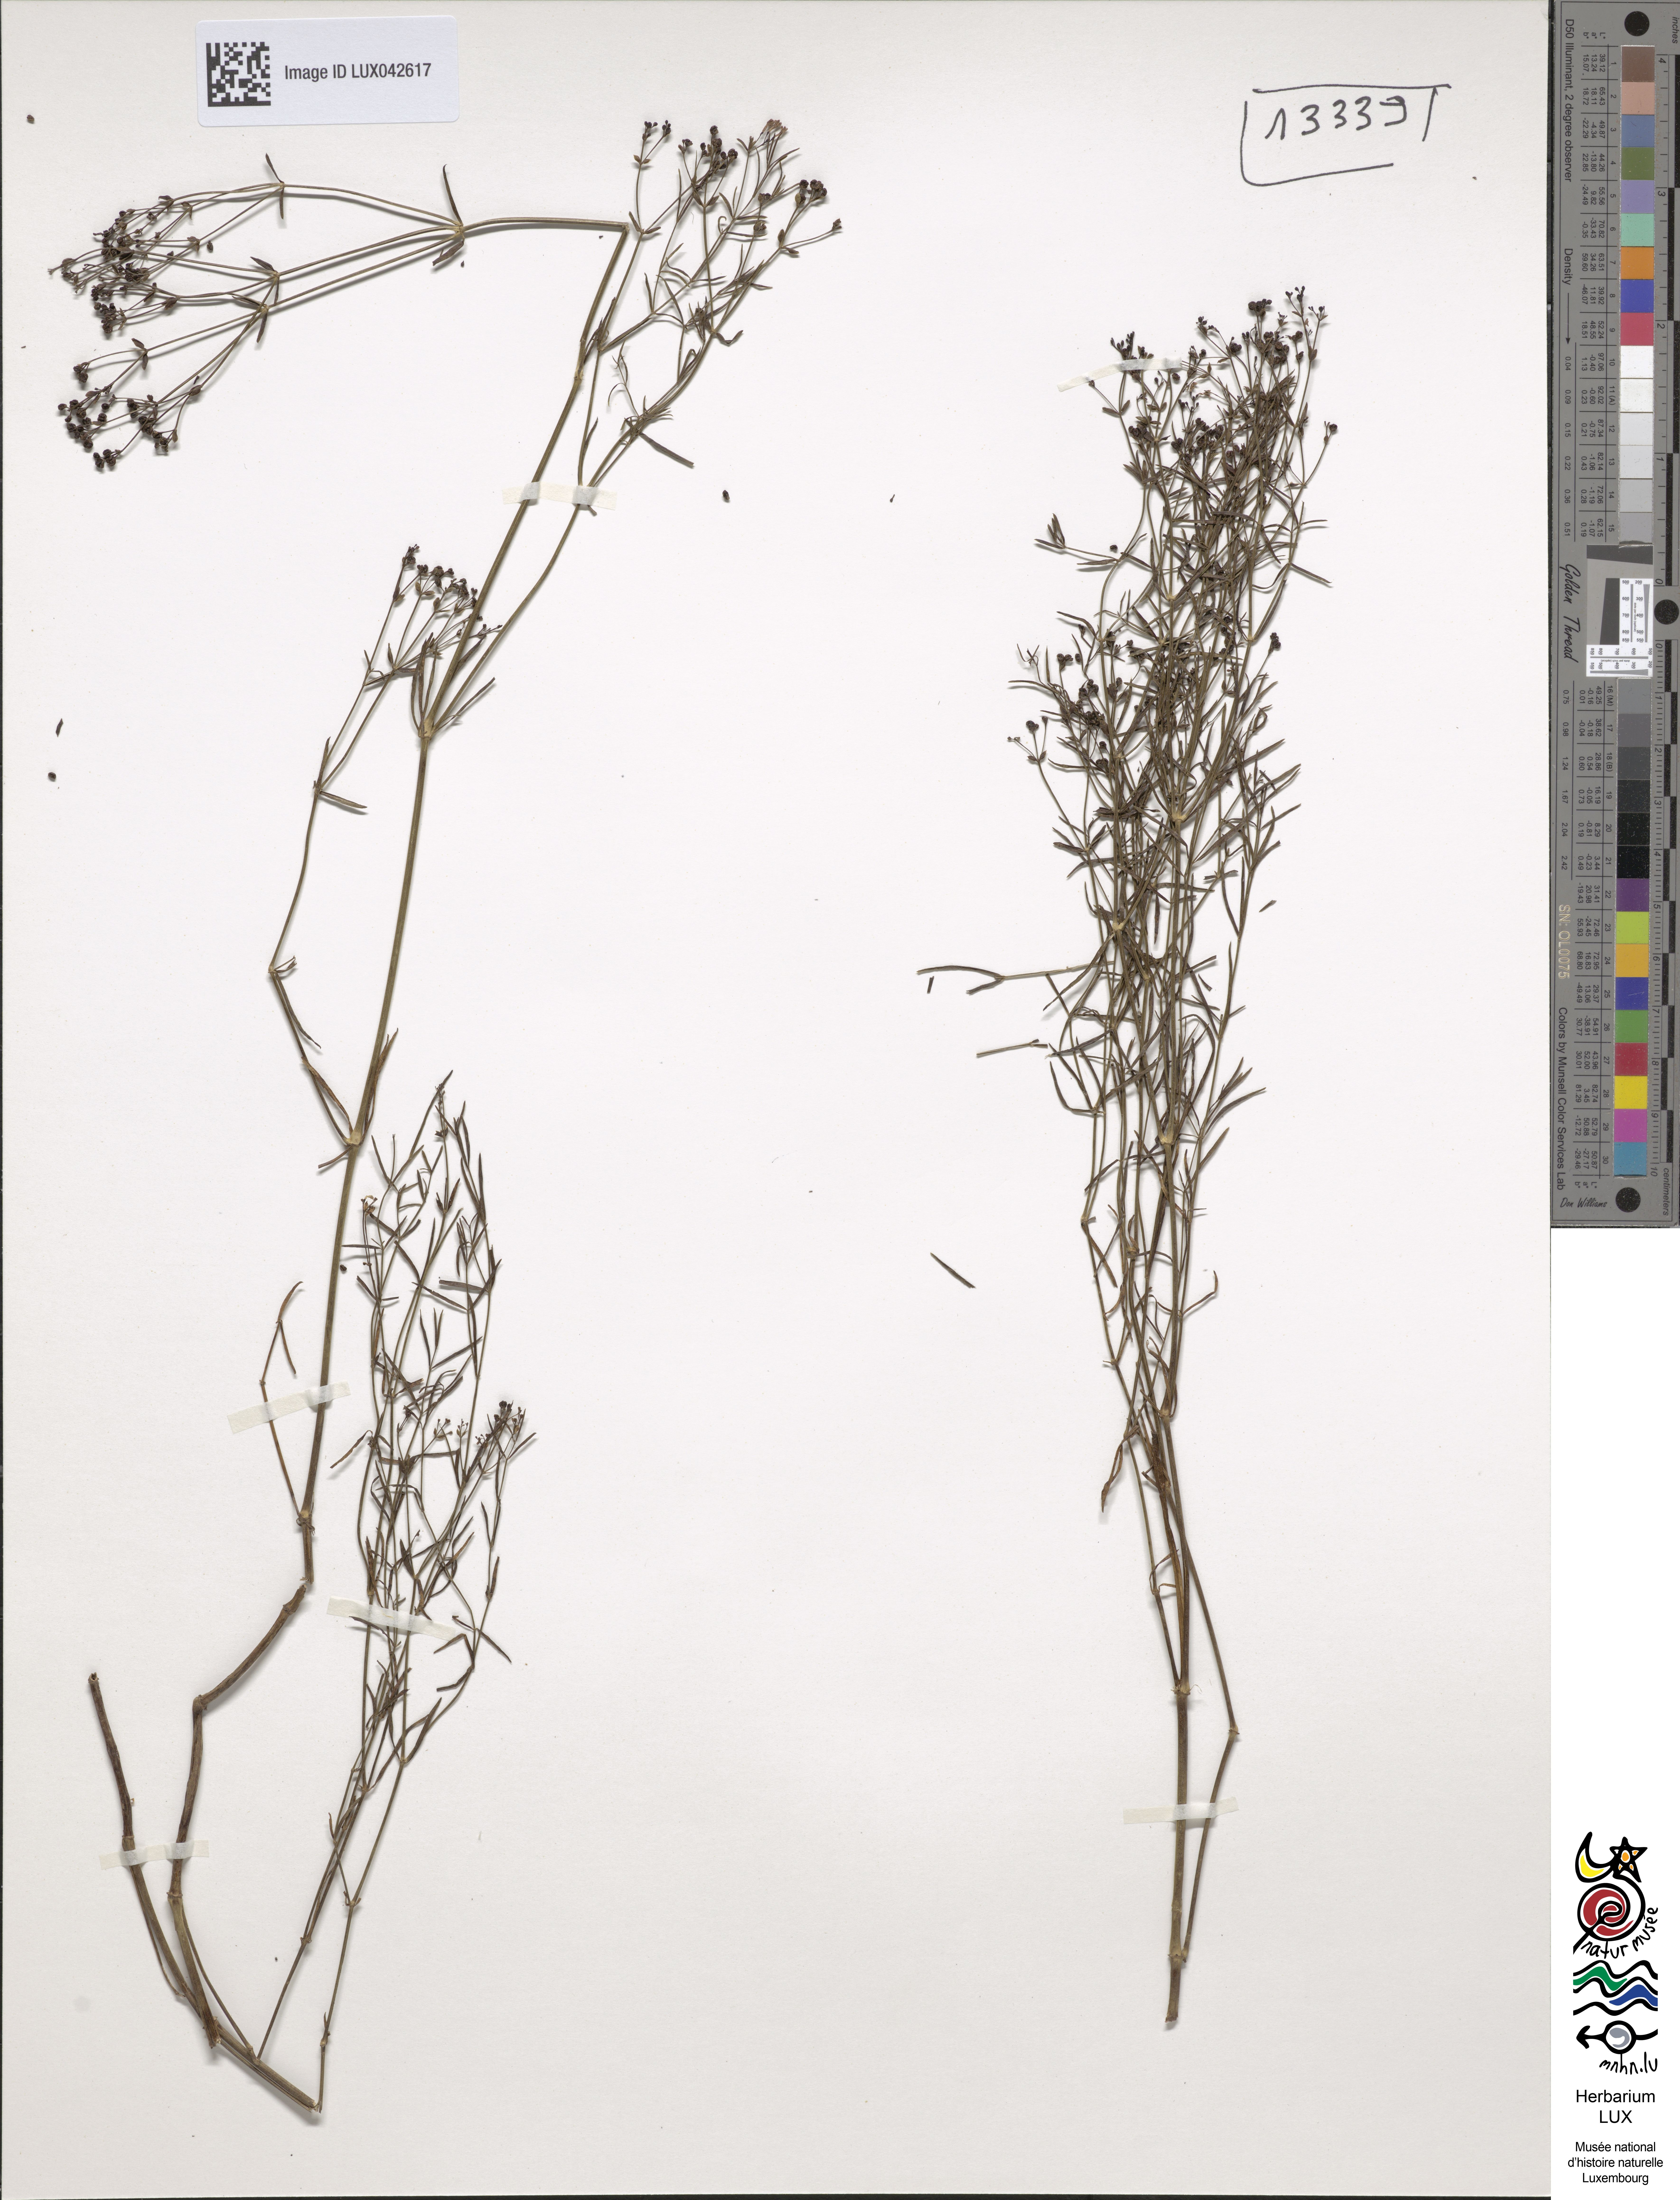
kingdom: Plantae
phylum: Tracheophyta
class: Magnoliopsida
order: Gentianales
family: Rubiaceae
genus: Asperula
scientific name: Asperula tinctoria
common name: Dyer's woodruff
